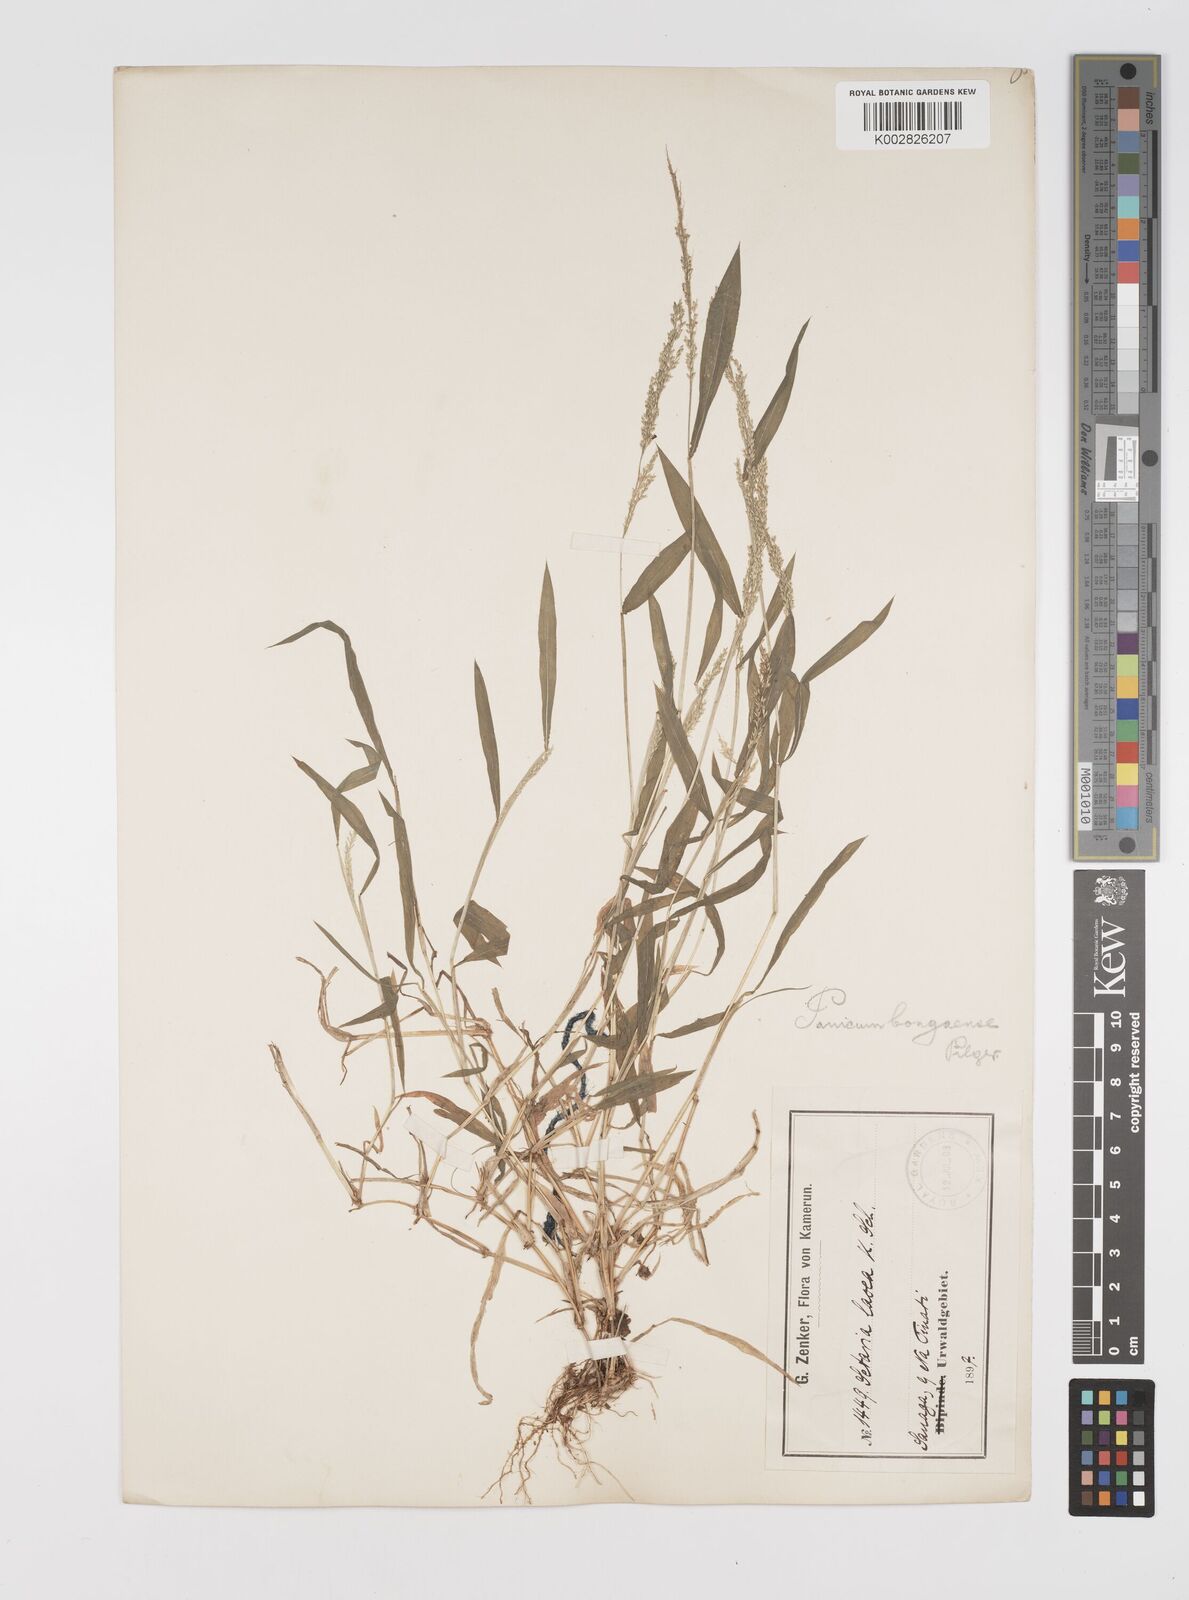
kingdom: Plantae
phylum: Tracheophyta
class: Liliopsida
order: Poales
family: Poaceae
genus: Setaria
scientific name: Setaria homonyma
